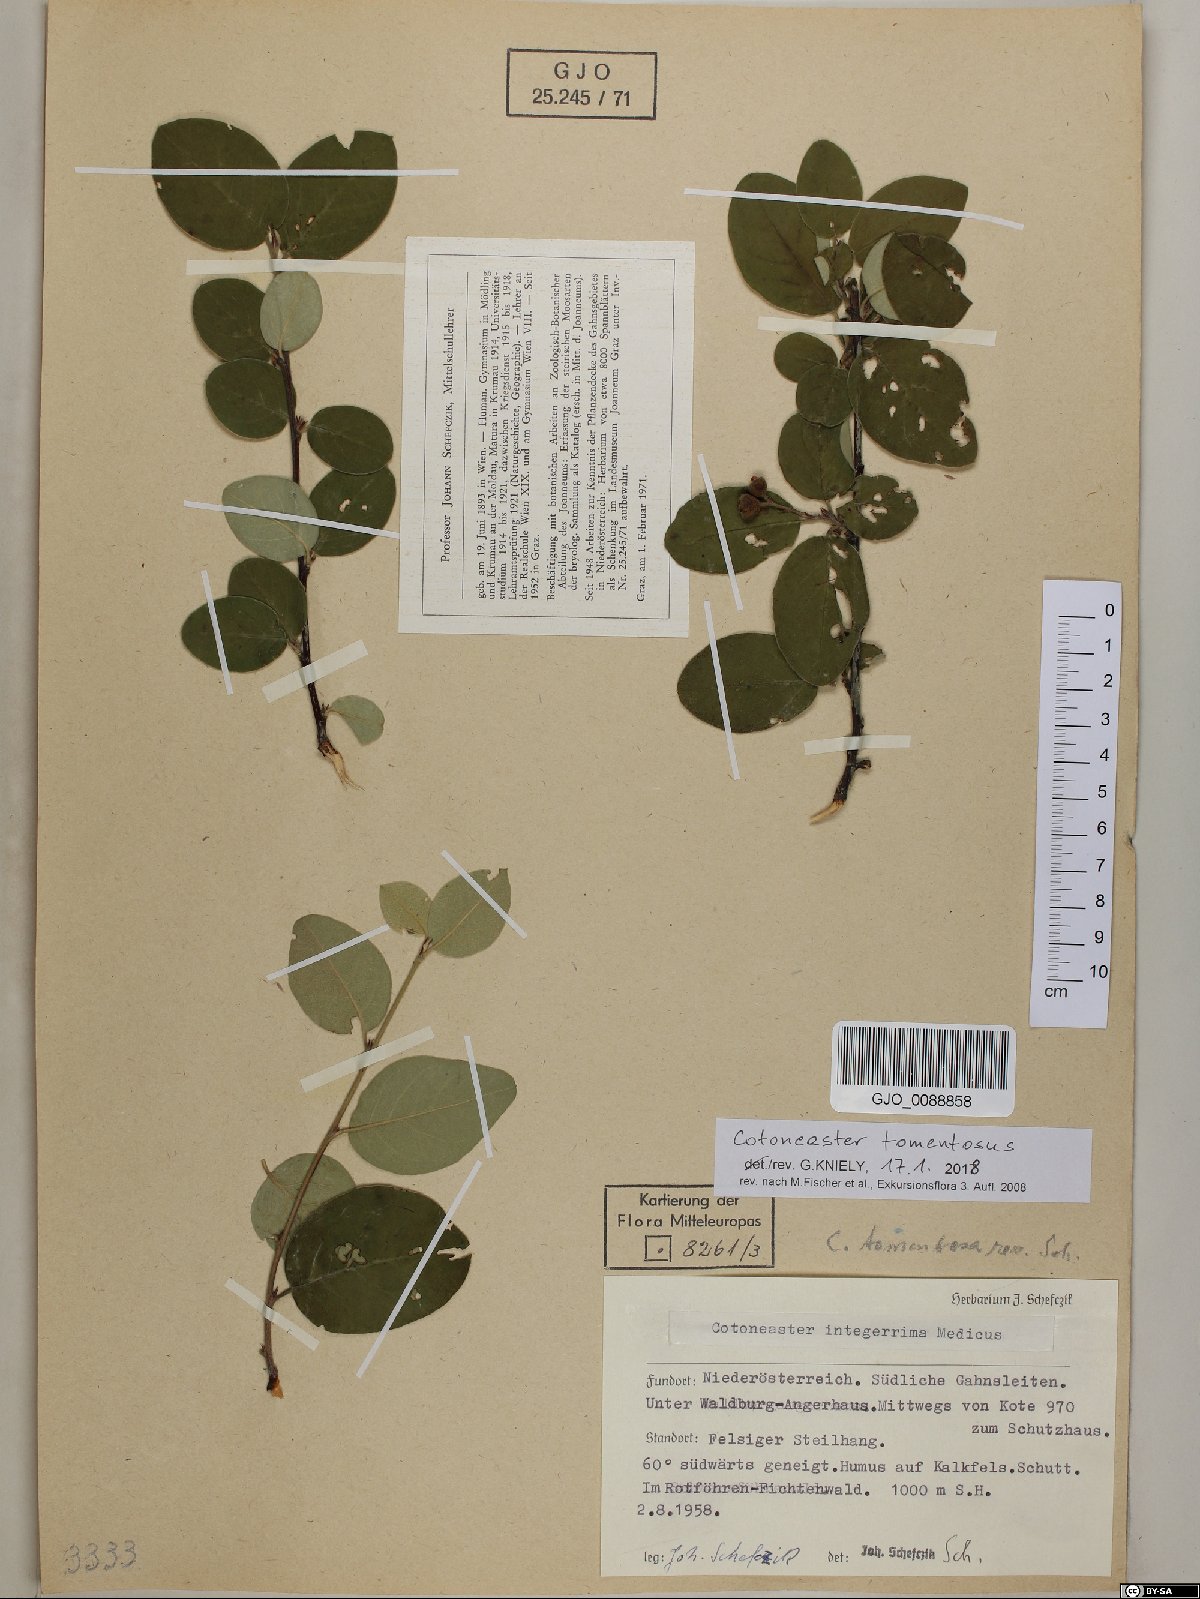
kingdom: Plantae
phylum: Tracheophyta
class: Magnoliopsida
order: Rosales
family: Rosaceae
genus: Cotoneaster
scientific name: Cotoneaster tomentosus
